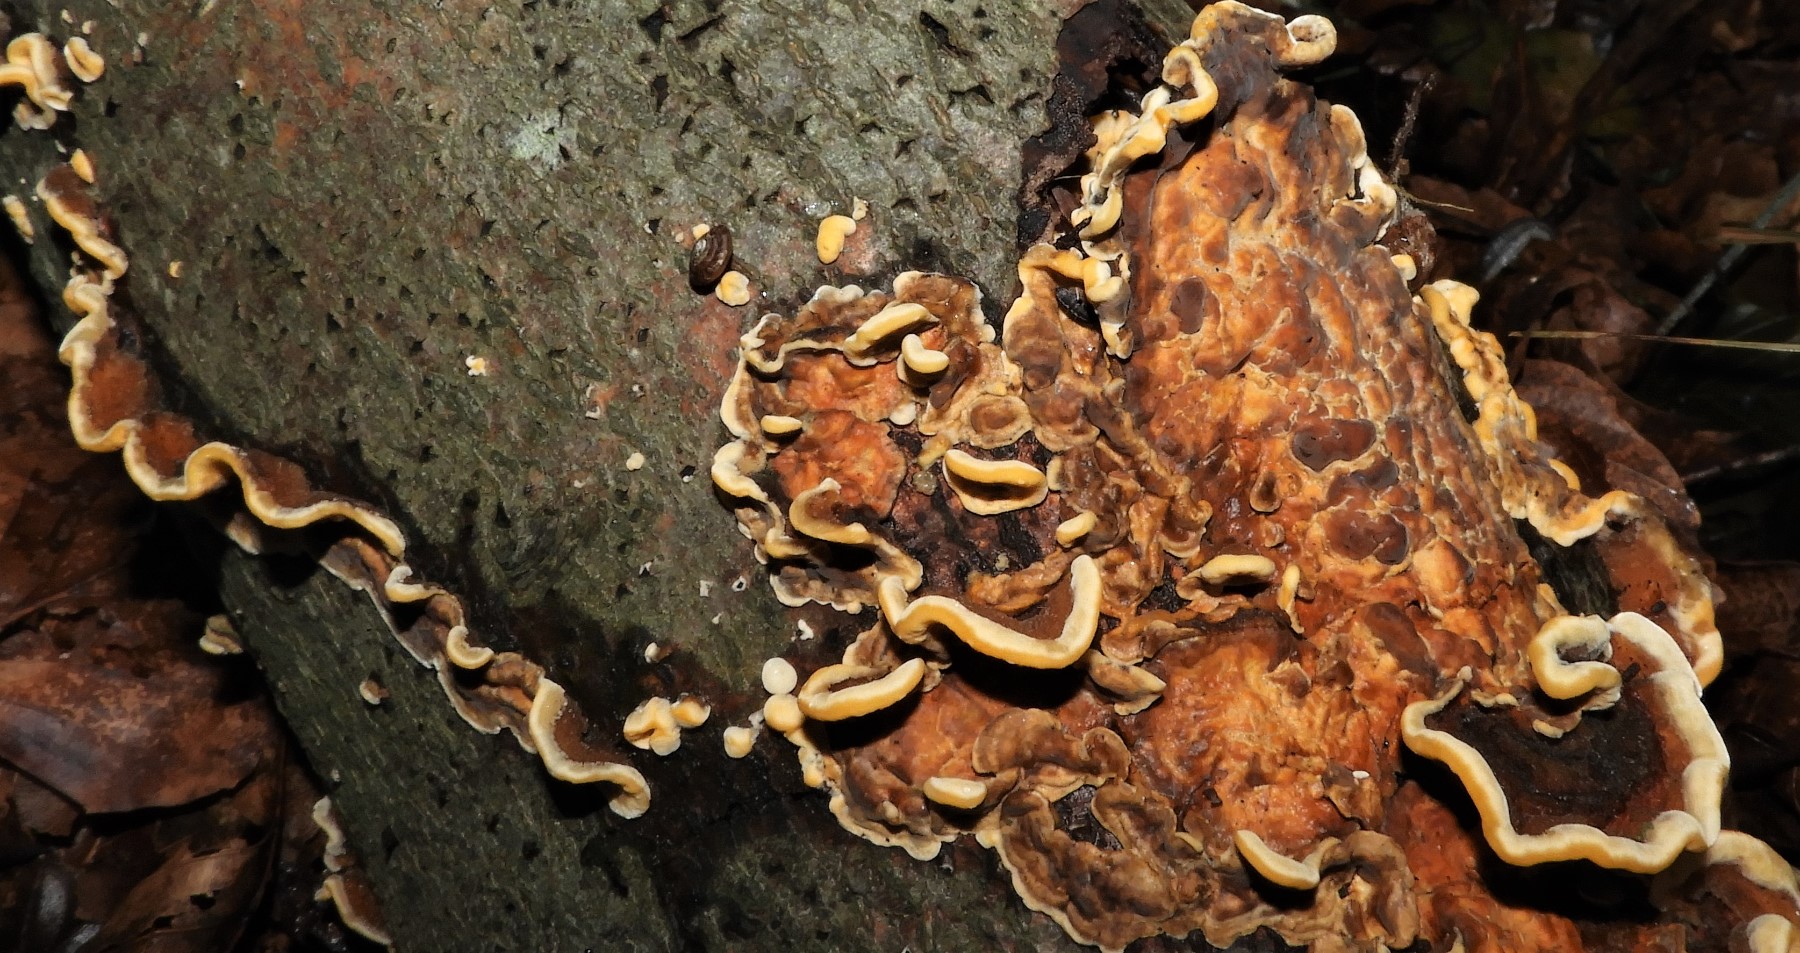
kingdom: Fungi
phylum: Basidiomycota
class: Agaricomycetes
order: Russulales
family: Stereaceae
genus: Stereum
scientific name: Stereum hirsutum
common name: håret lædersvamp
